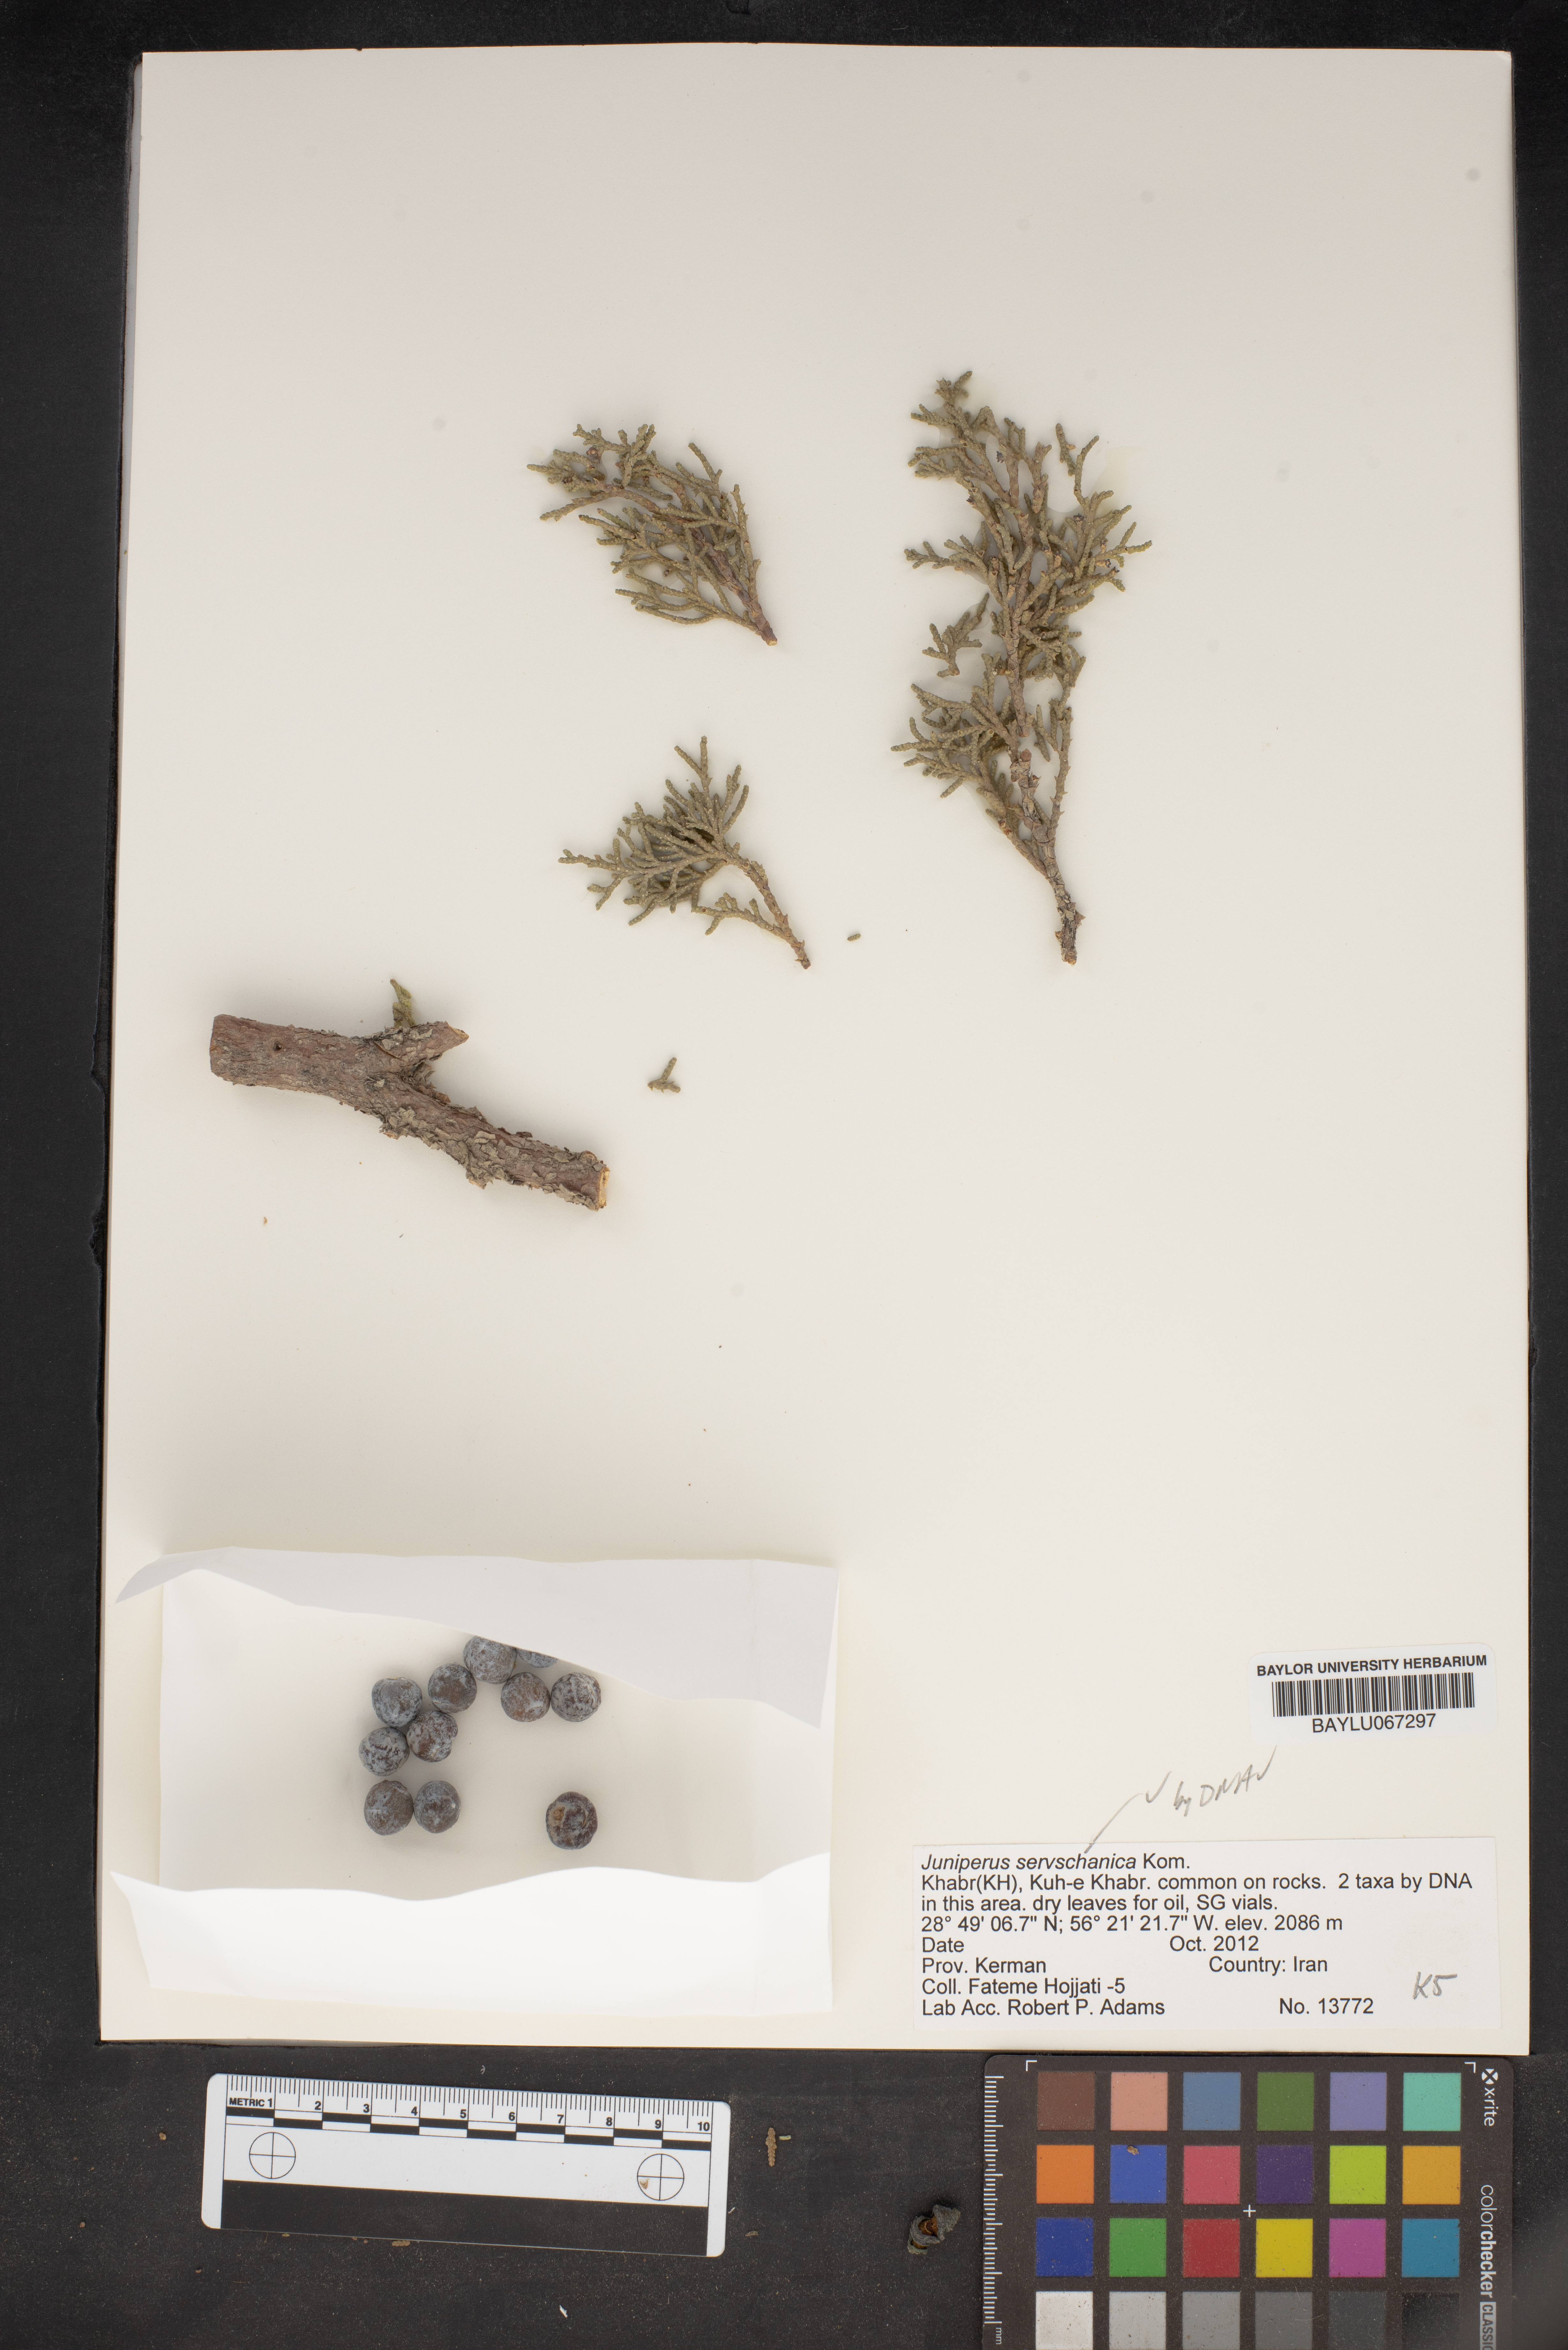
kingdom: Plantae
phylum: Tracheophyta
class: Pinopsida
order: Pinales
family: Cupressaceae
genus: Juniperus
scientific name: Juniperus excelsa
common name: Crimean juniper
